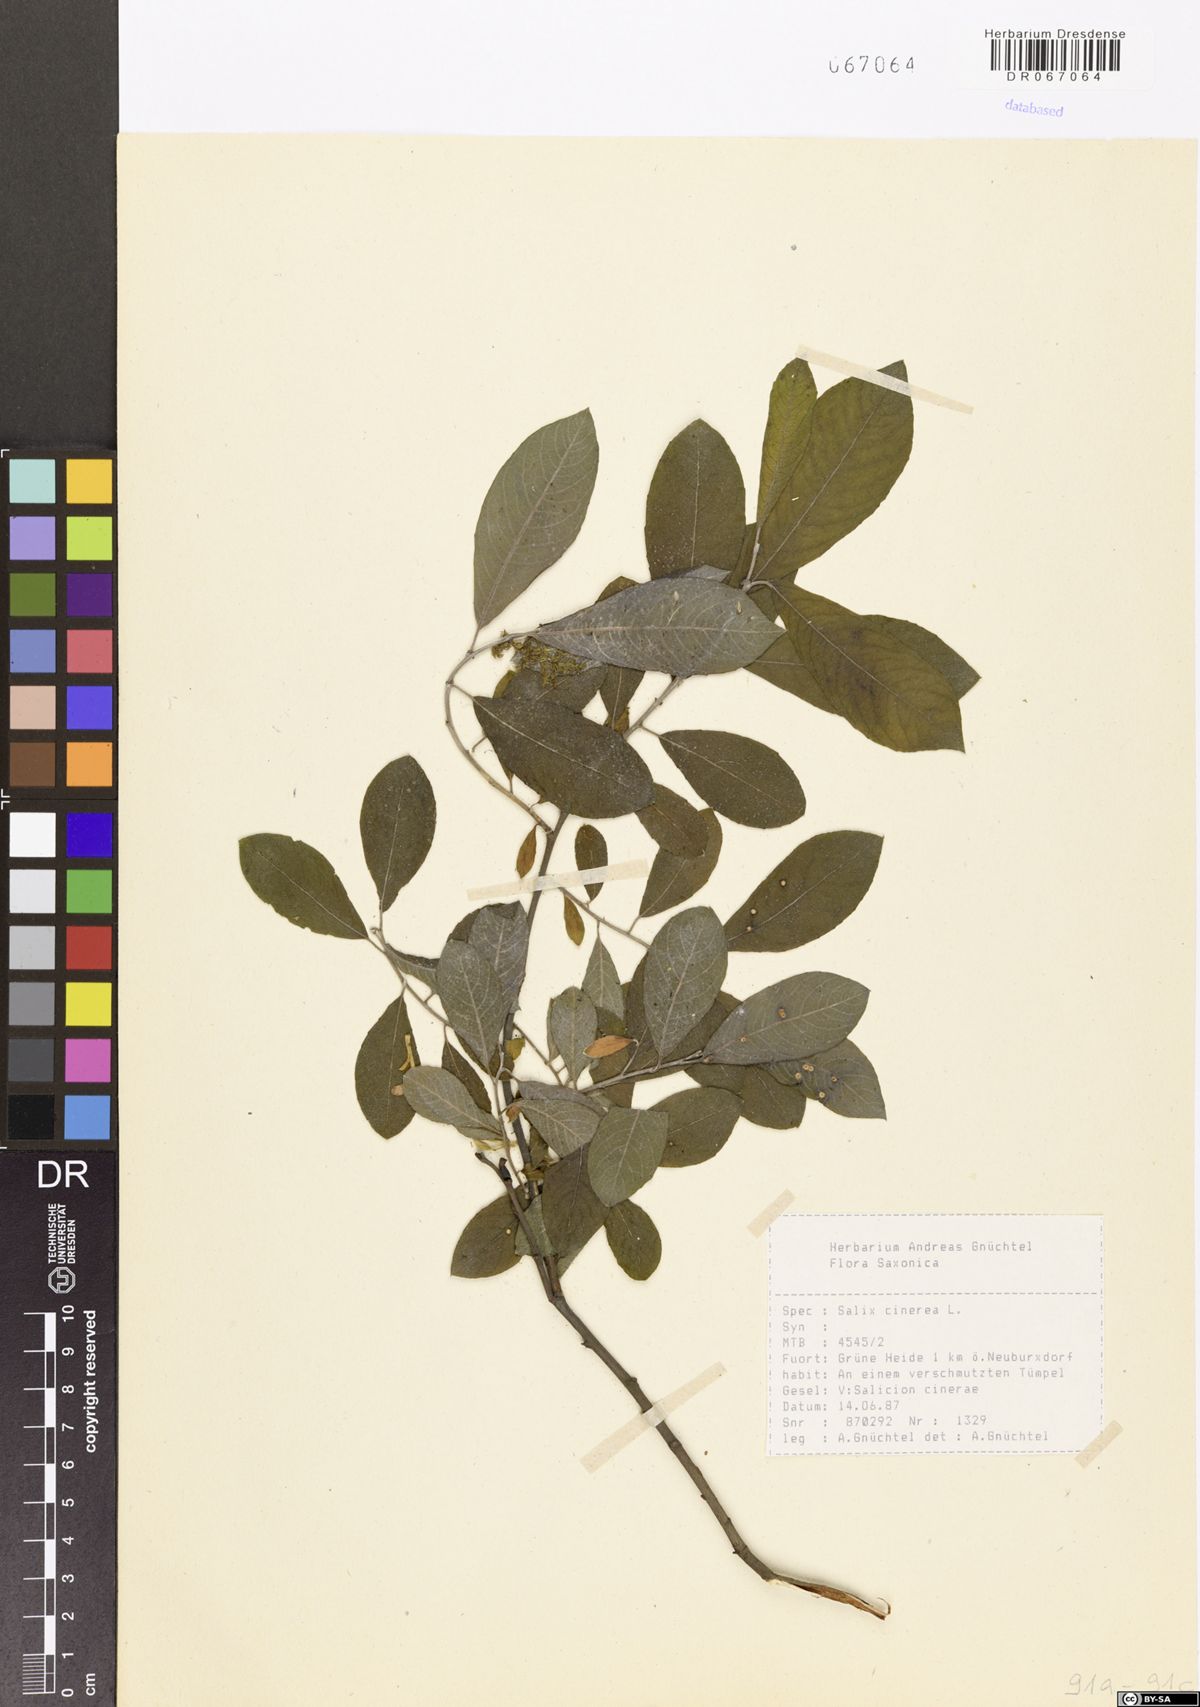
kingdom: Plantae
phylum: Tracheophyta
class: Magnoliopsida
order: Malpighiales
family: Salicaceae
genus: Salix
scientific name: Salix cinerea
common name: Common sallow
